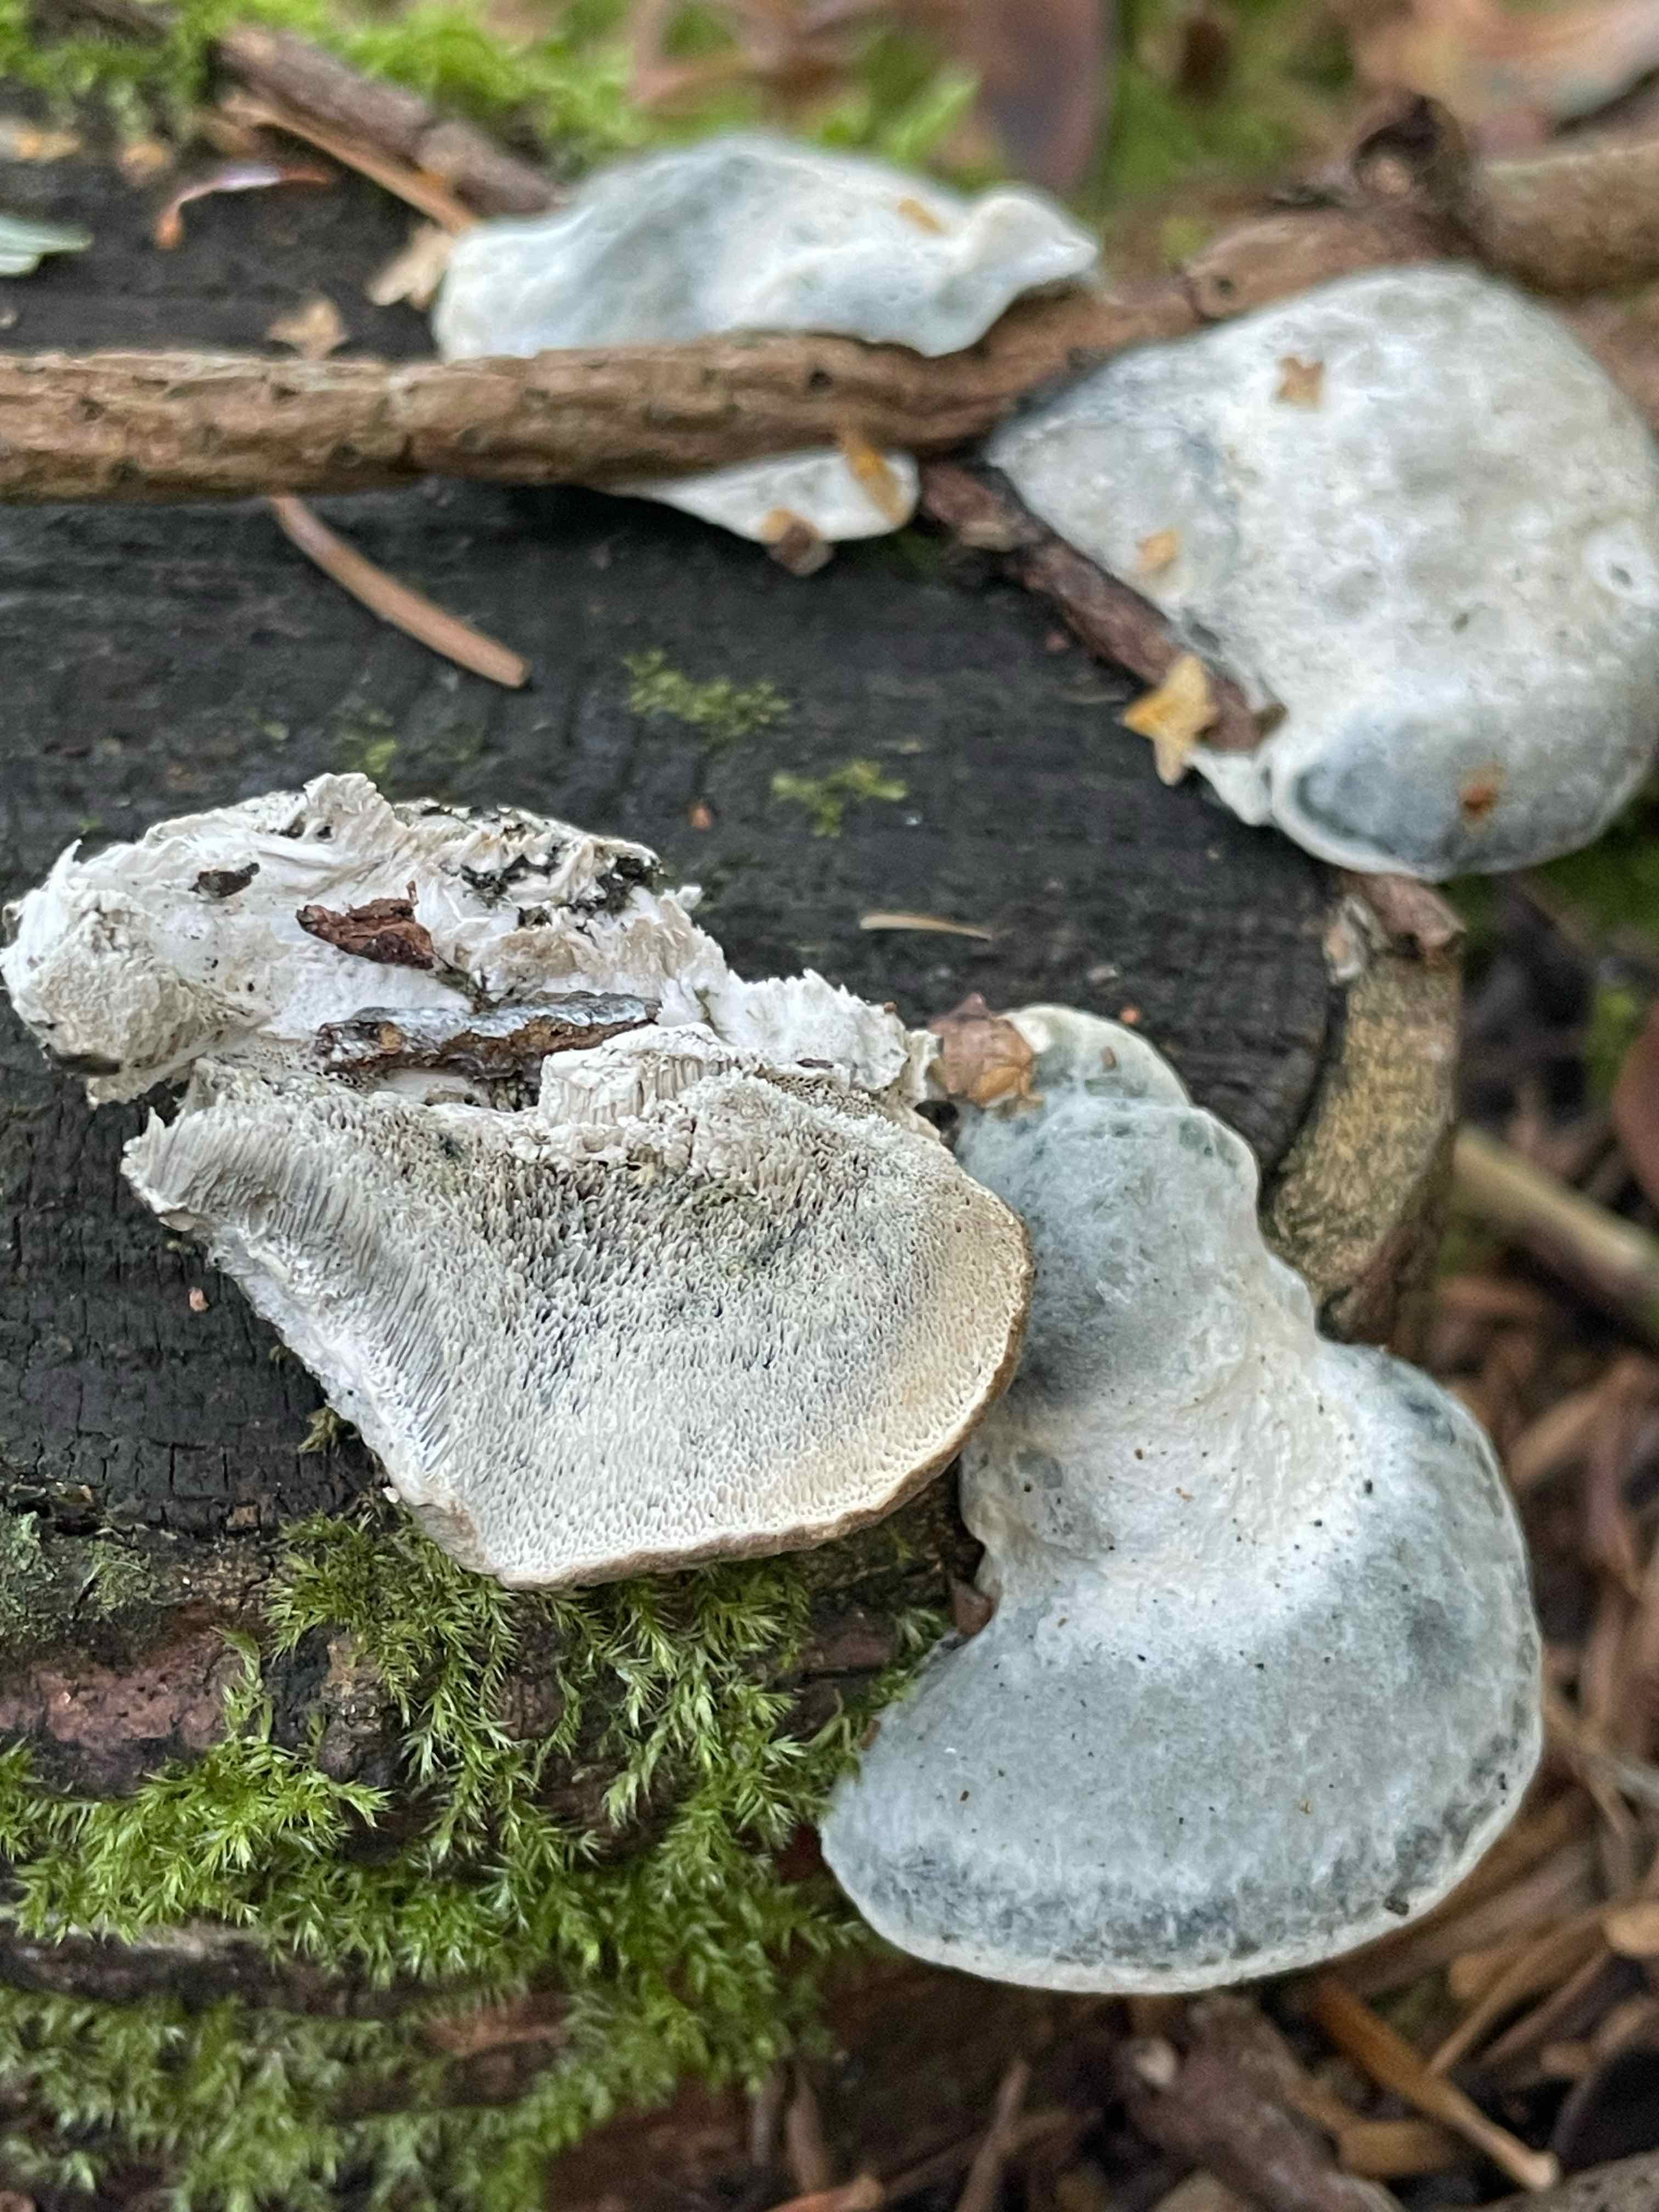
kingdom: Fungi
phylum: Basidiomycota
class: Agaricomycetes
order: Polyporales
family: Polyporaceae
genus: Cyanosporus
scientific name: Cyanosporus caesius
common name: blålig kødporesvamp
